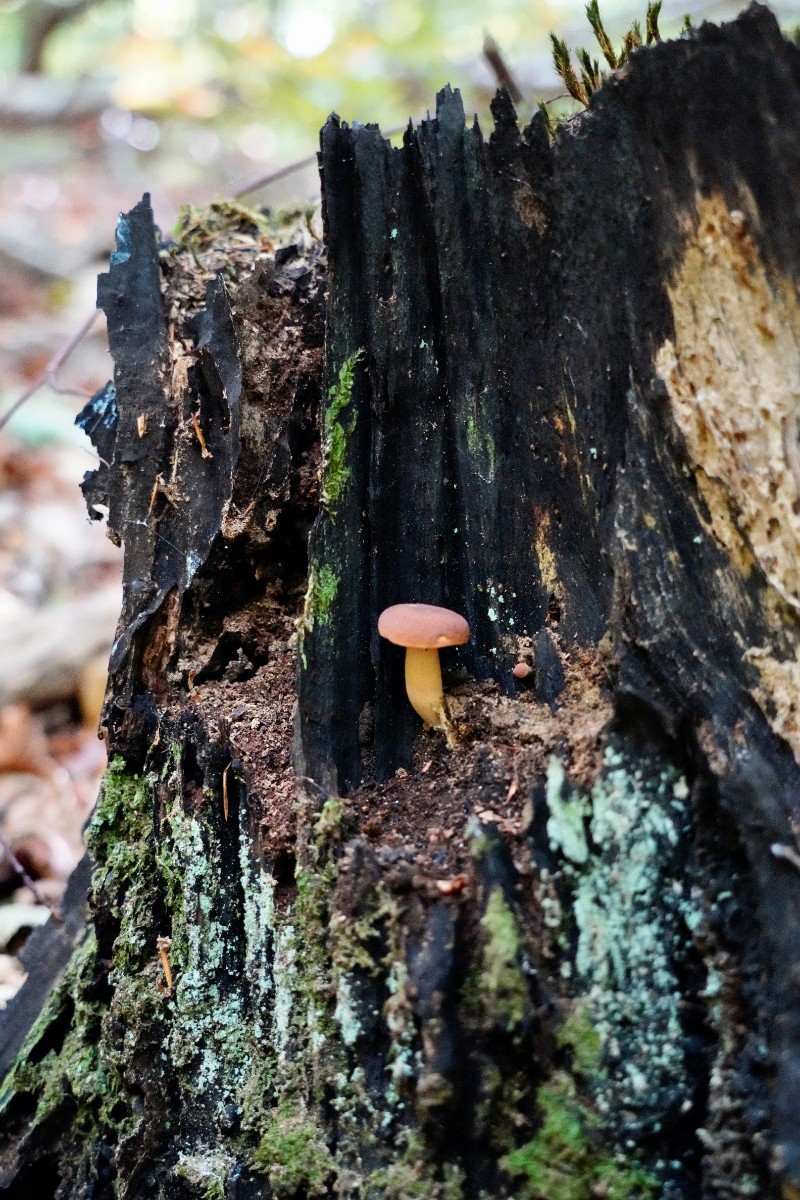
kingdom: Fungi
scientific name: Fungi
